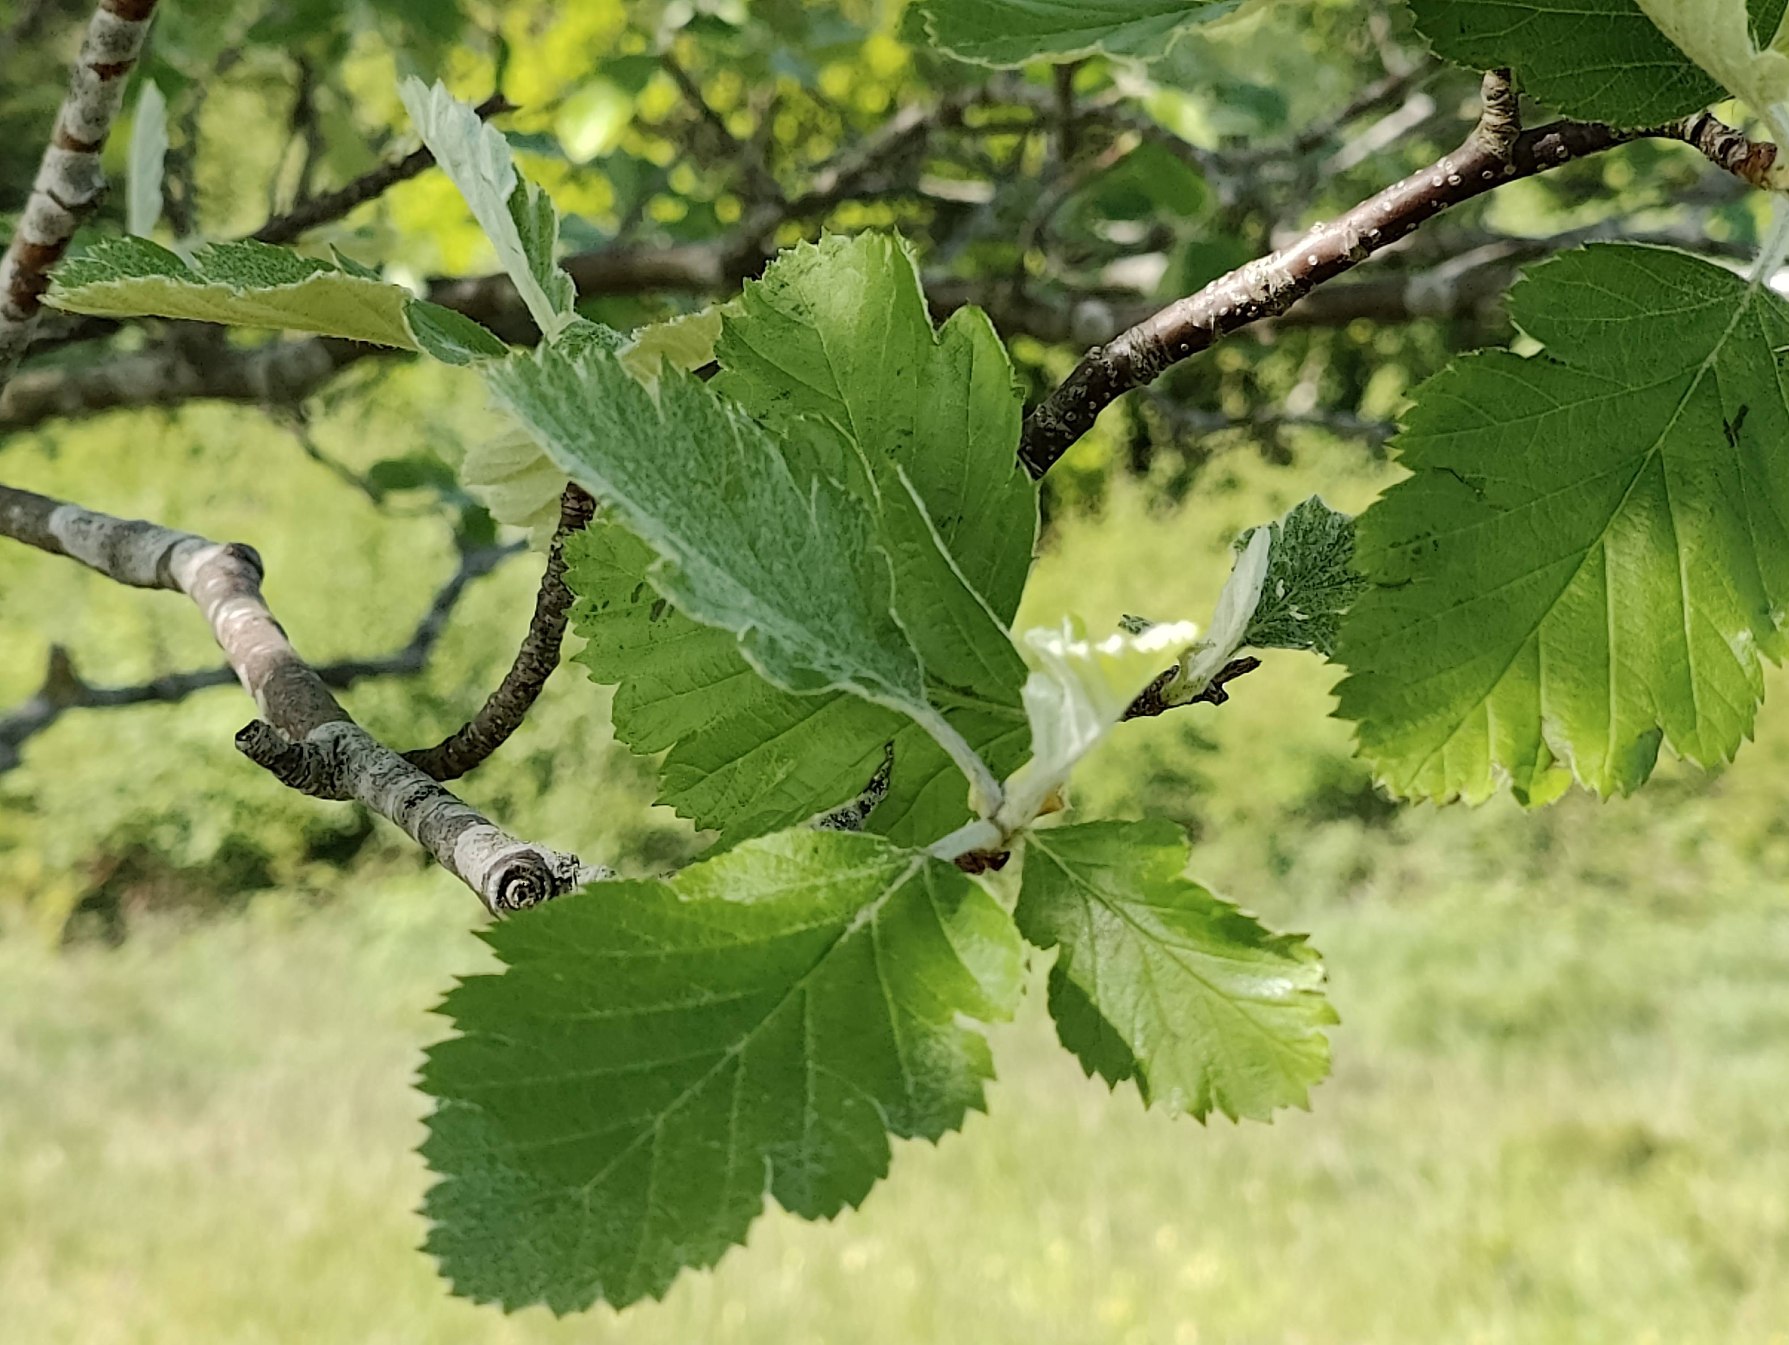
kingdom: Plantae
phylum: Tracheophyta
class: Magnoliopsida
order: Rosales
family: Rosaceae
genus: Scandosorbus
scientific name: Scandosorbus intermedia
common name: Selje-røn
